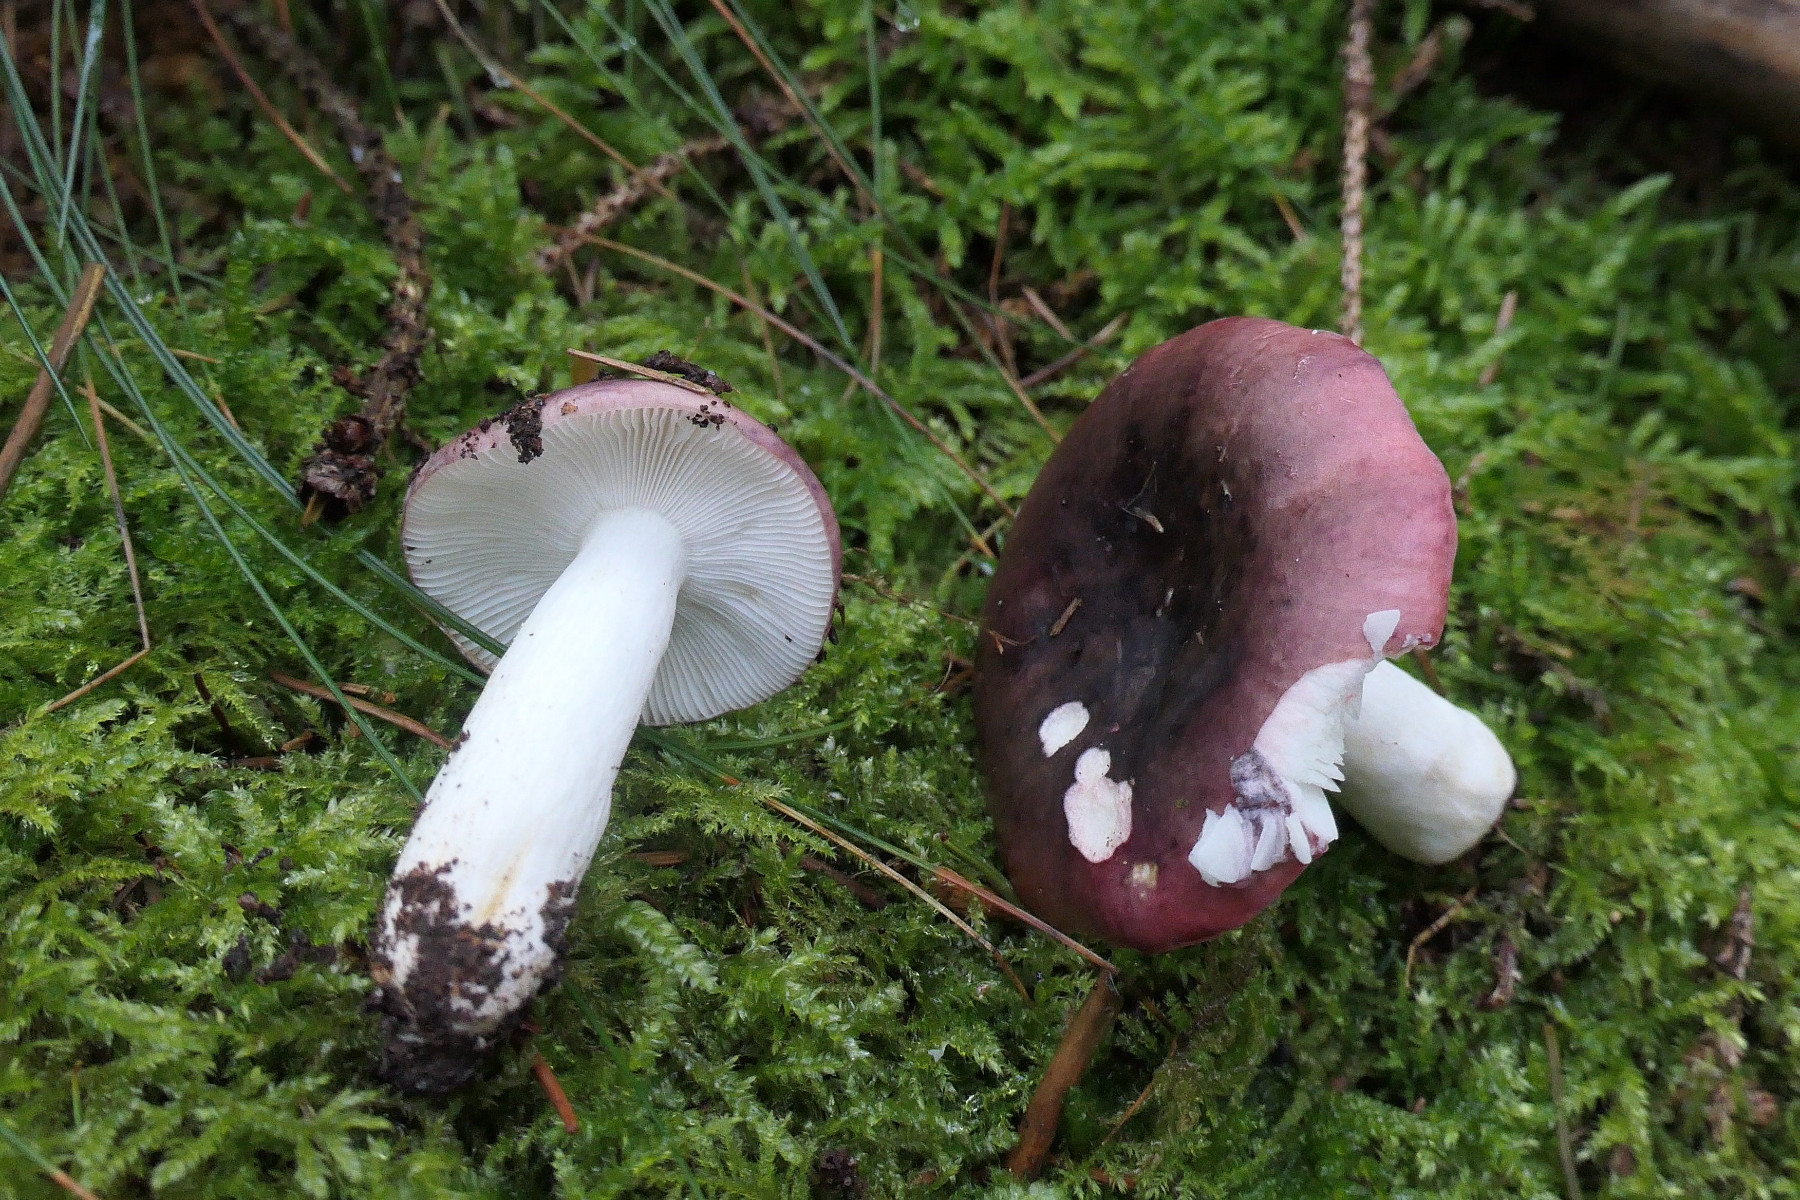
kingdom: Fungi
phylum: Basidiomycota
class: Agaricomycetes
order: Russulales
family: Russulaceae
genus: Russula
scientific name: Russula atrorubens
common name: sortrød skørhat
